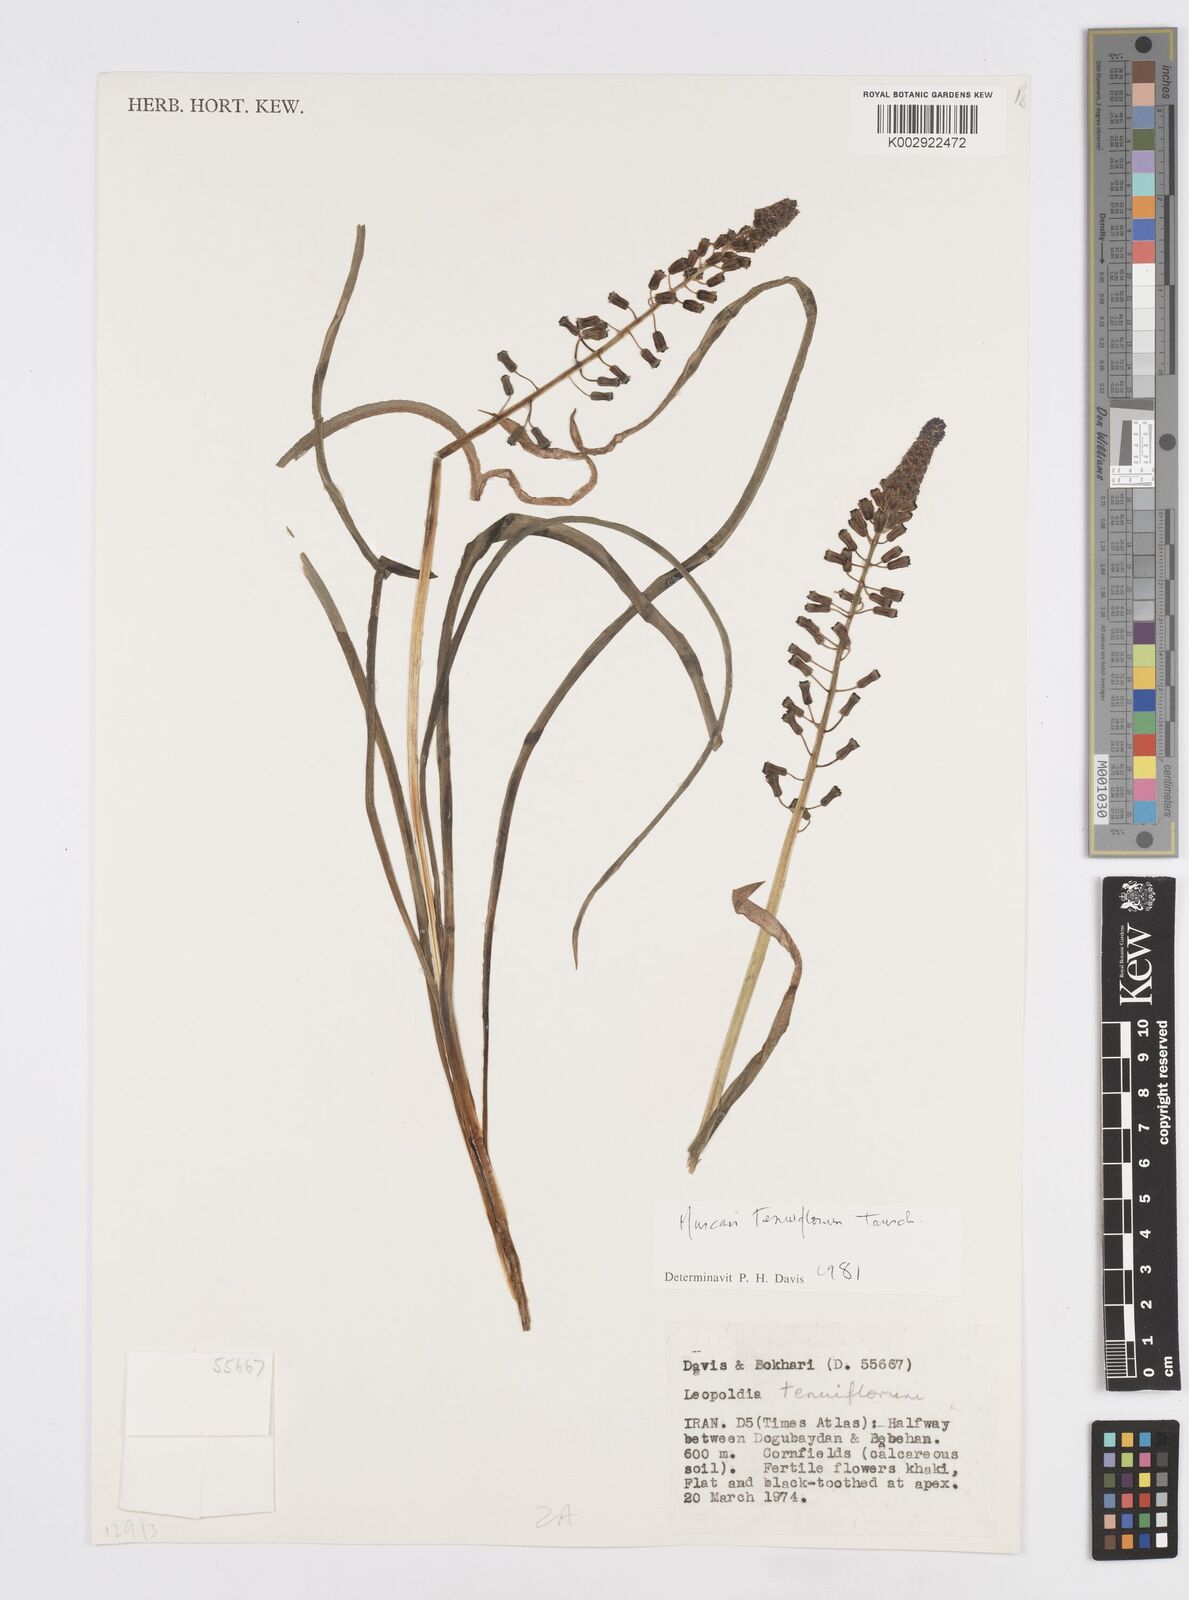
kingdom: Plantae
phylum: Tracheophyta
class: Liliopsida
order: Asparagales
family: Asparagaceae
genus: Muscari
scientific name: Muscari tenuiflorum
